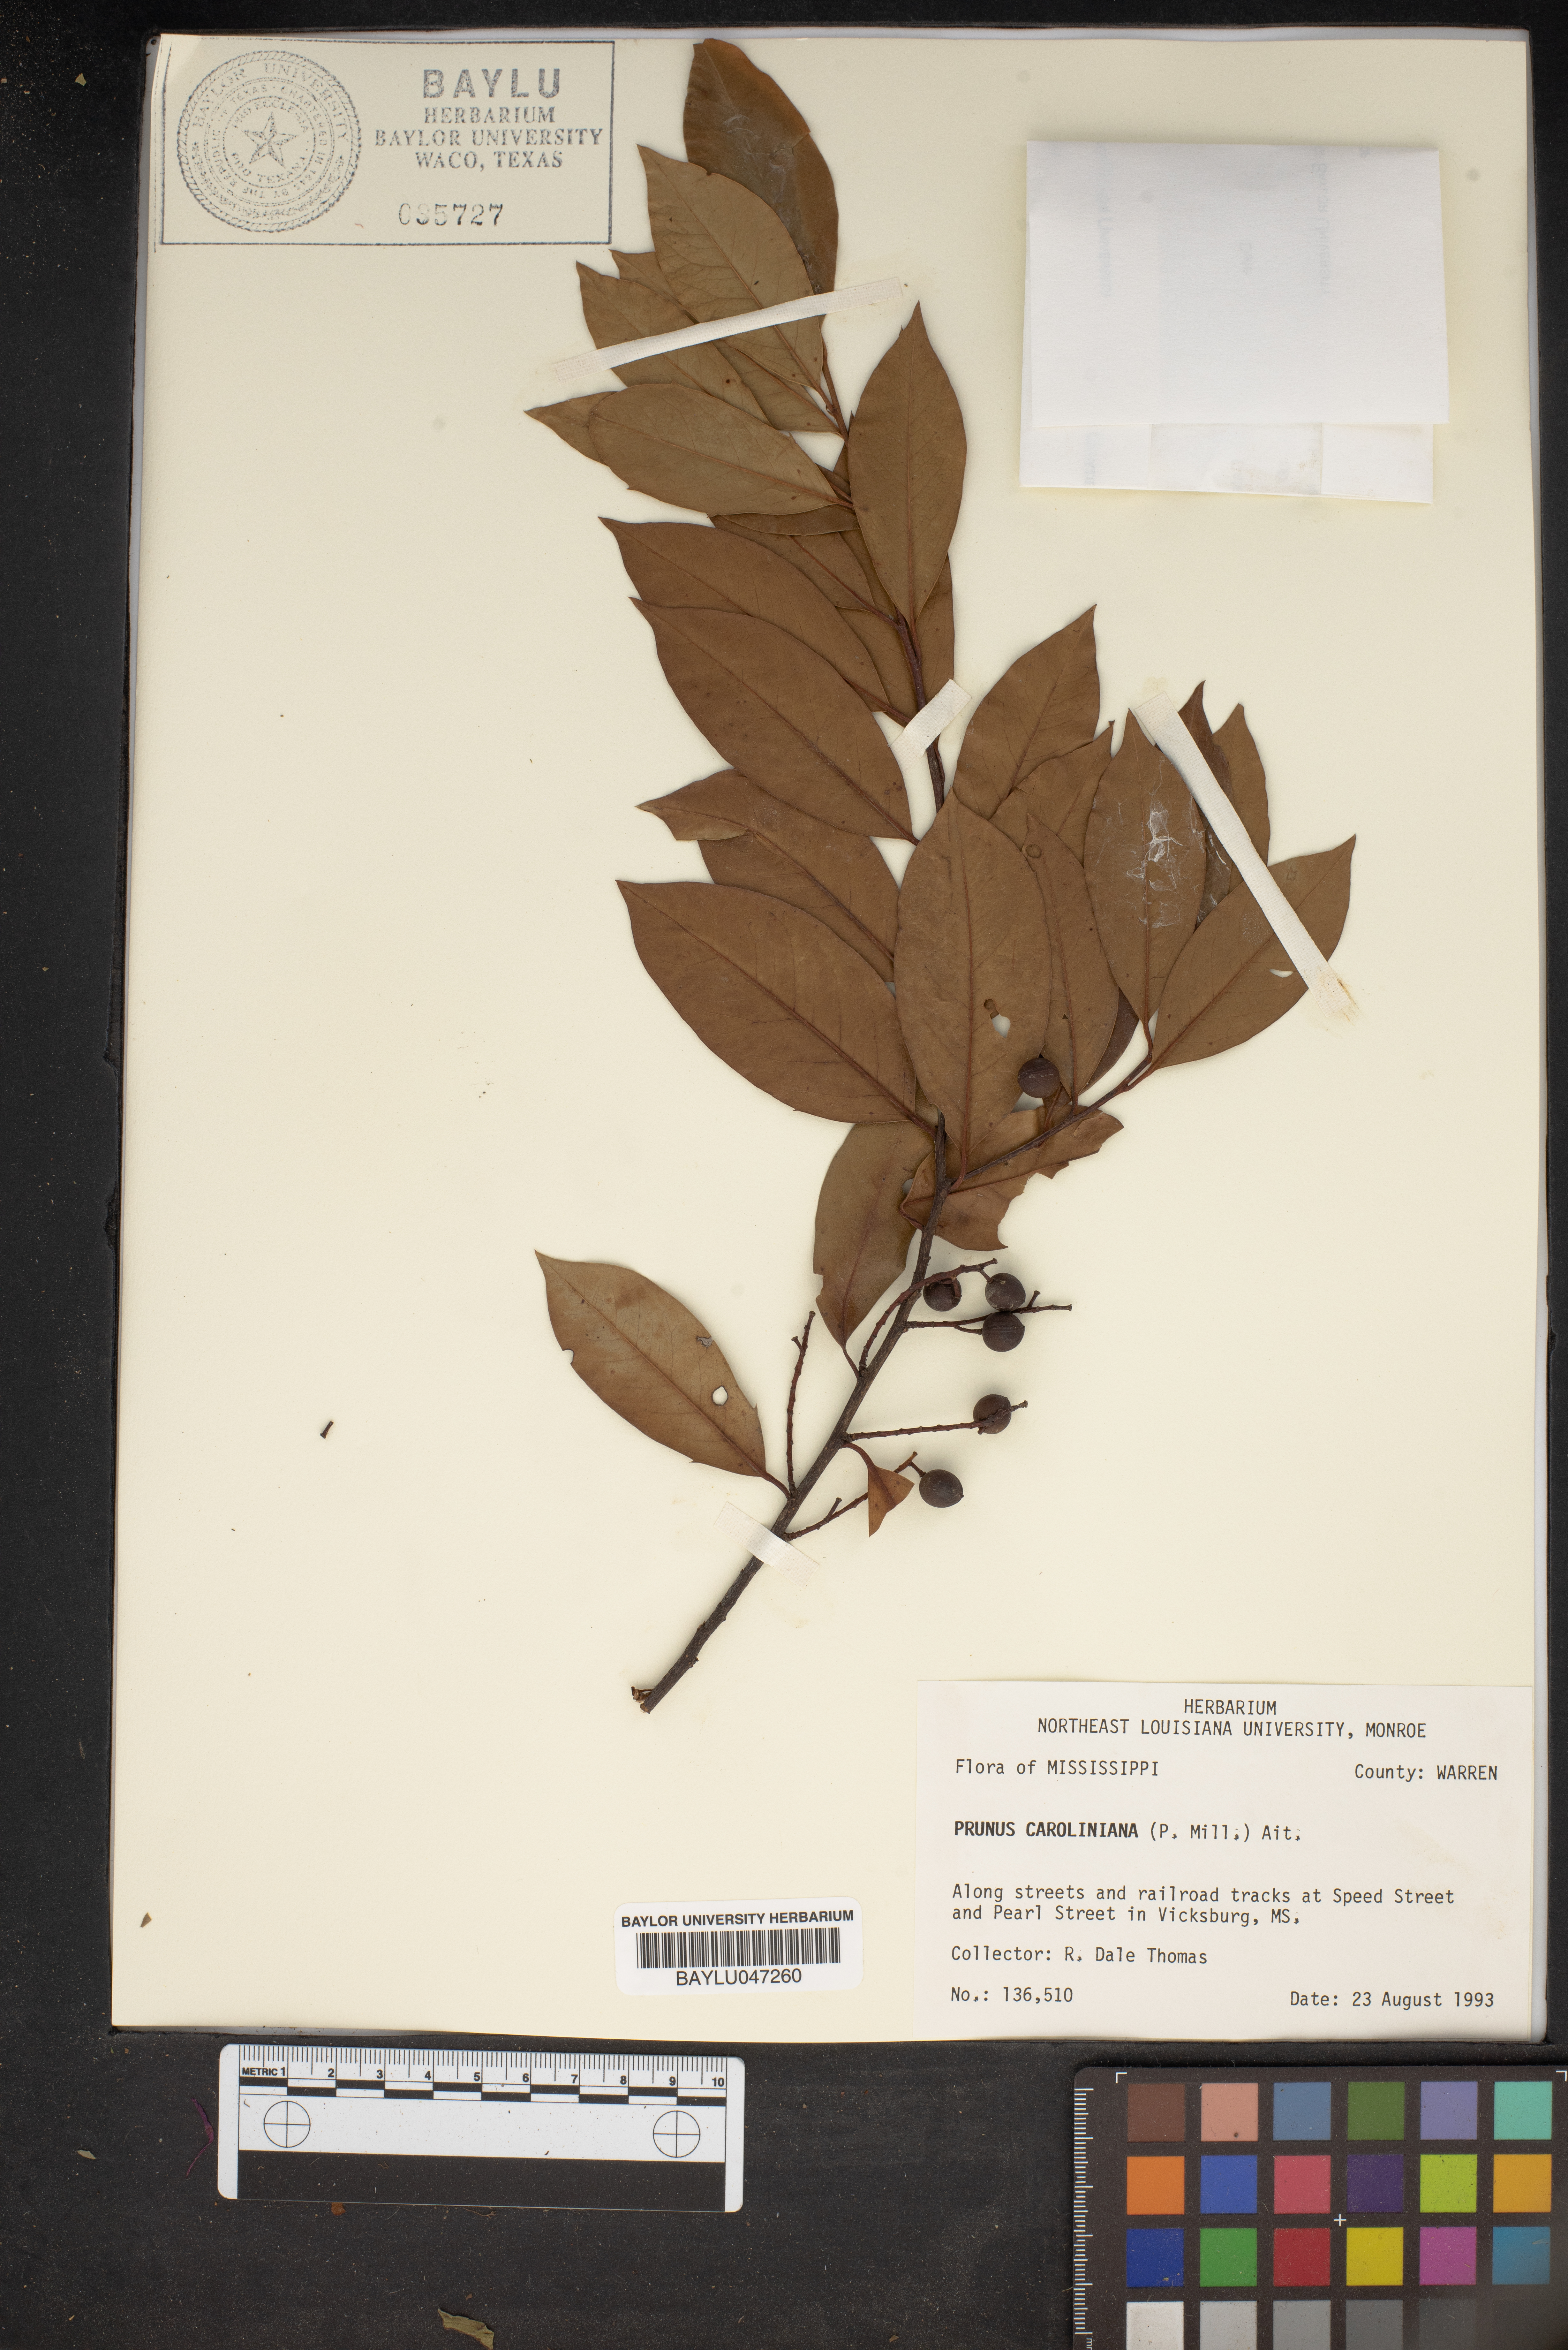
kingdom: Plantae
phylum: Tracheophyta
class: Magnoliopsida
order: Rosales
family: Rosaceae
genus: Prunus
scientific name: Prunus caroliniana
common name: Carolina laurel cherry
